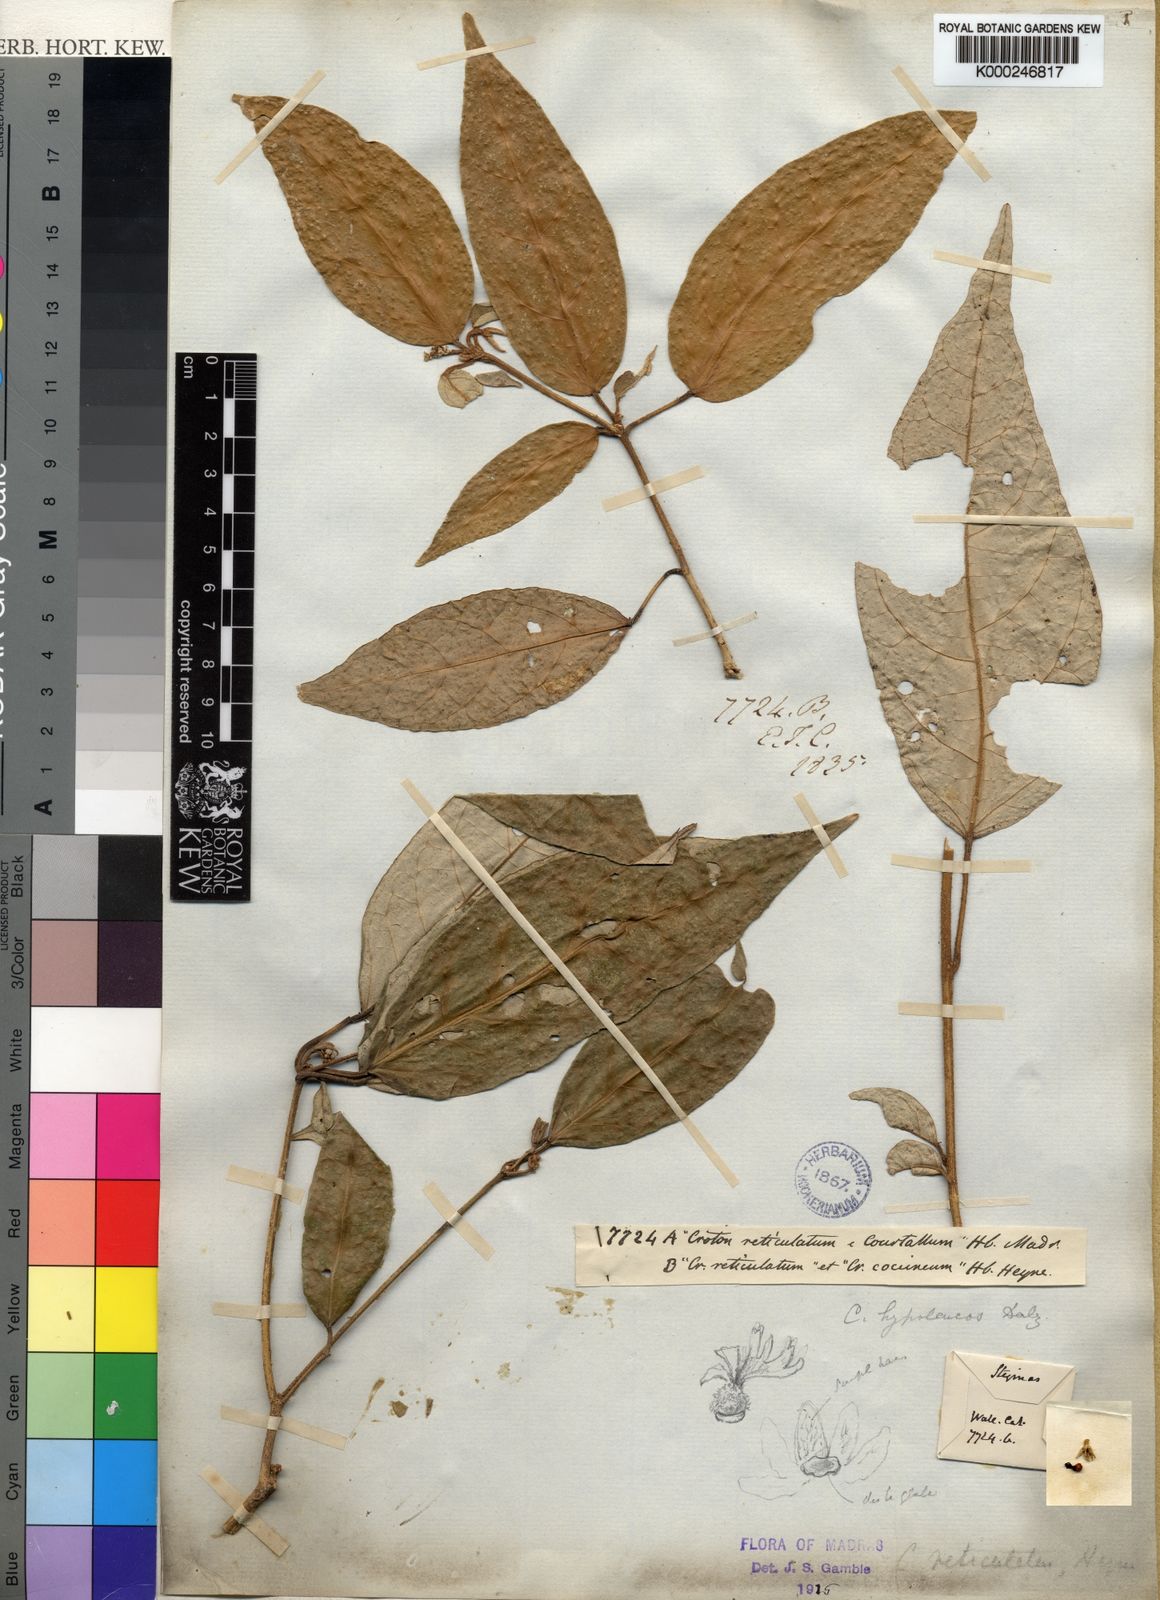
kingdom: Plantae
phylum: Tracheophyta
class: Magnoliopsida
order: Malpighiales
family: Euphorbiaceae
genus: Croton
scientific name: Croton
